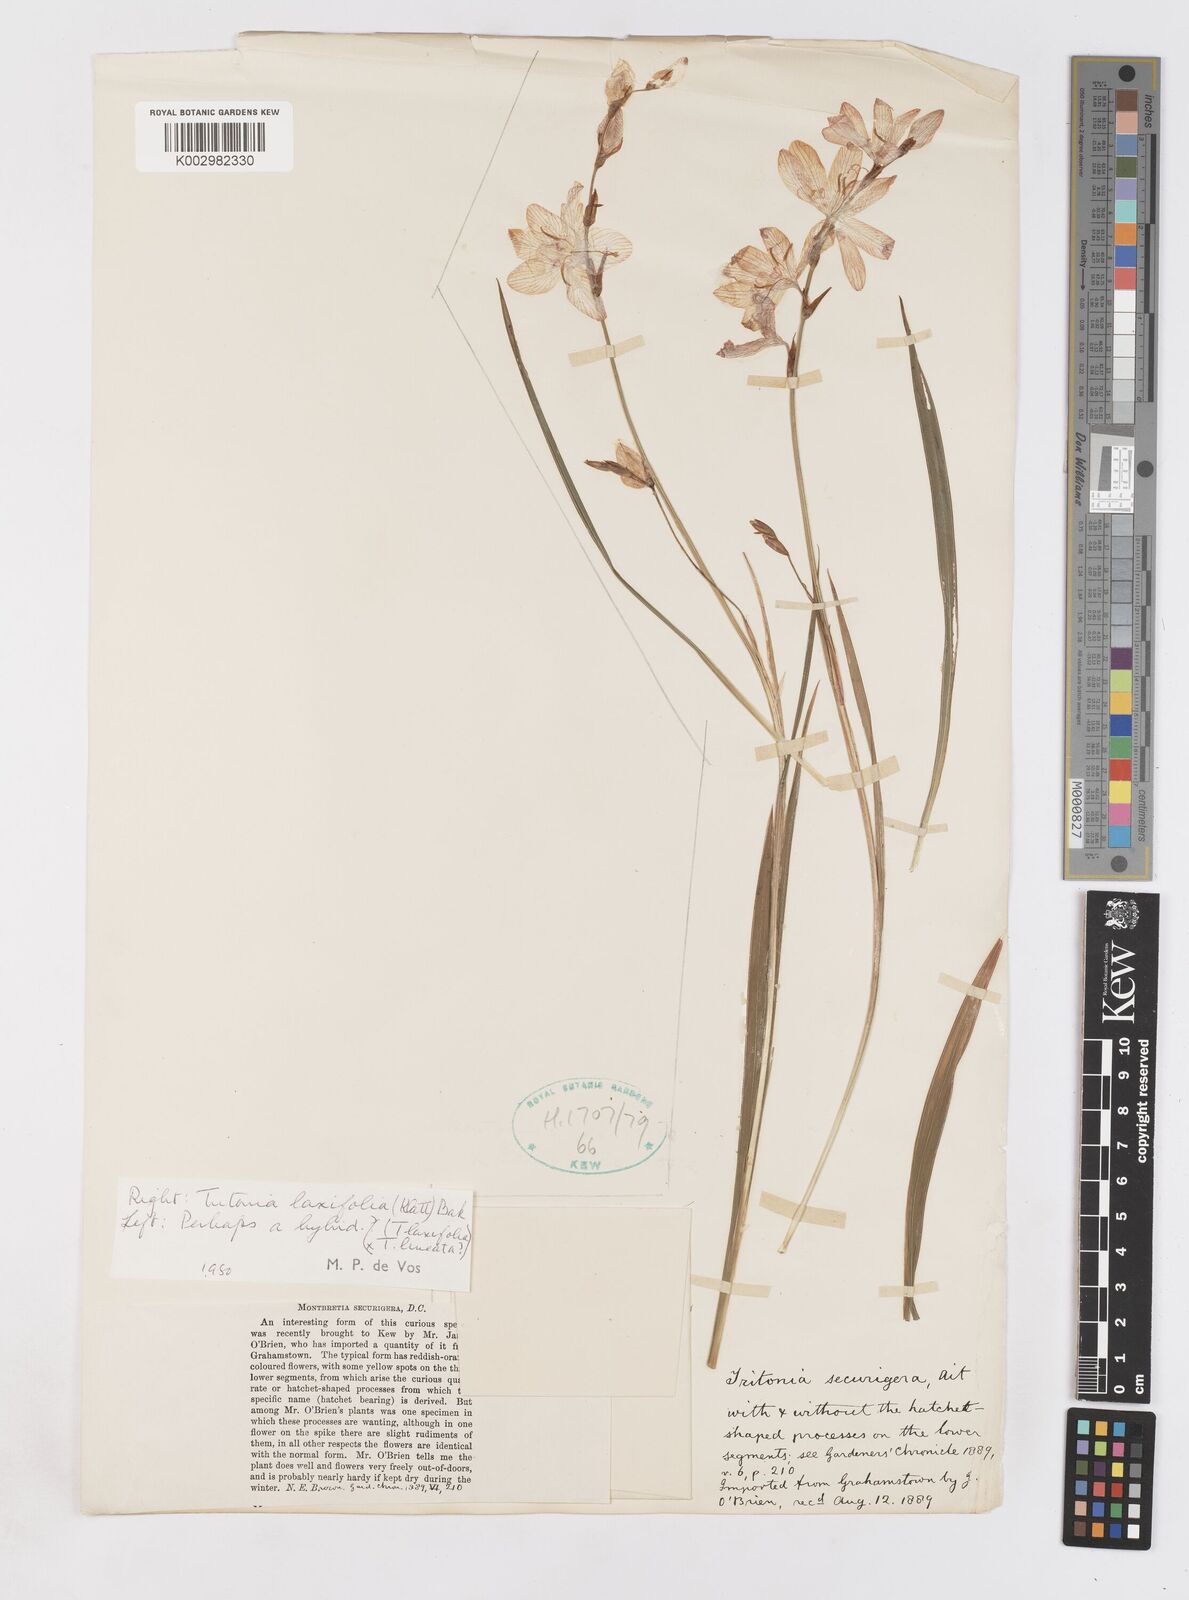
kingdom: Plantae
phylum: Tracheophyta
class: Liliopsida
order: Asparagales
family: Iridaceae
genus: Tritonia
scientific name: Tritonia laxifolia
